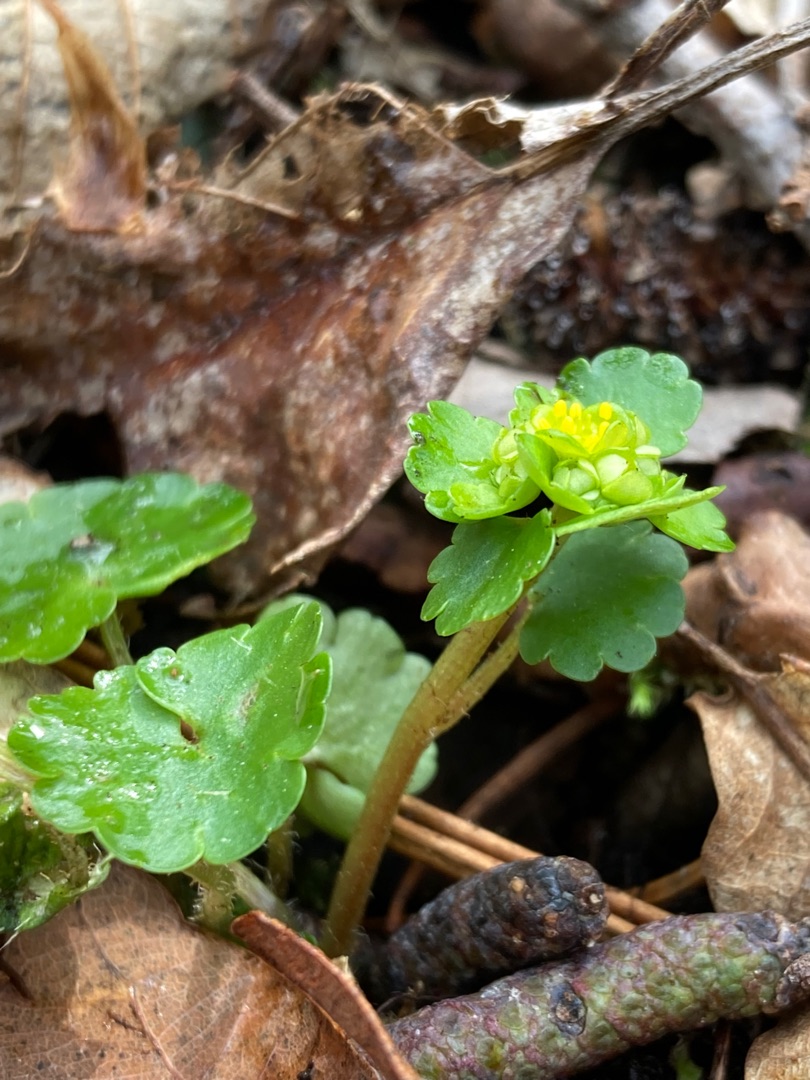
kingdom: Plantae
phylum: Tracheophyta
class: Magnoliopsida
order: Saxifragales
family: Saxifragaceae
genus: Chrysosplenium
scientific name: Chrysosplenium alternifolium
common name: Almindelig milturt
